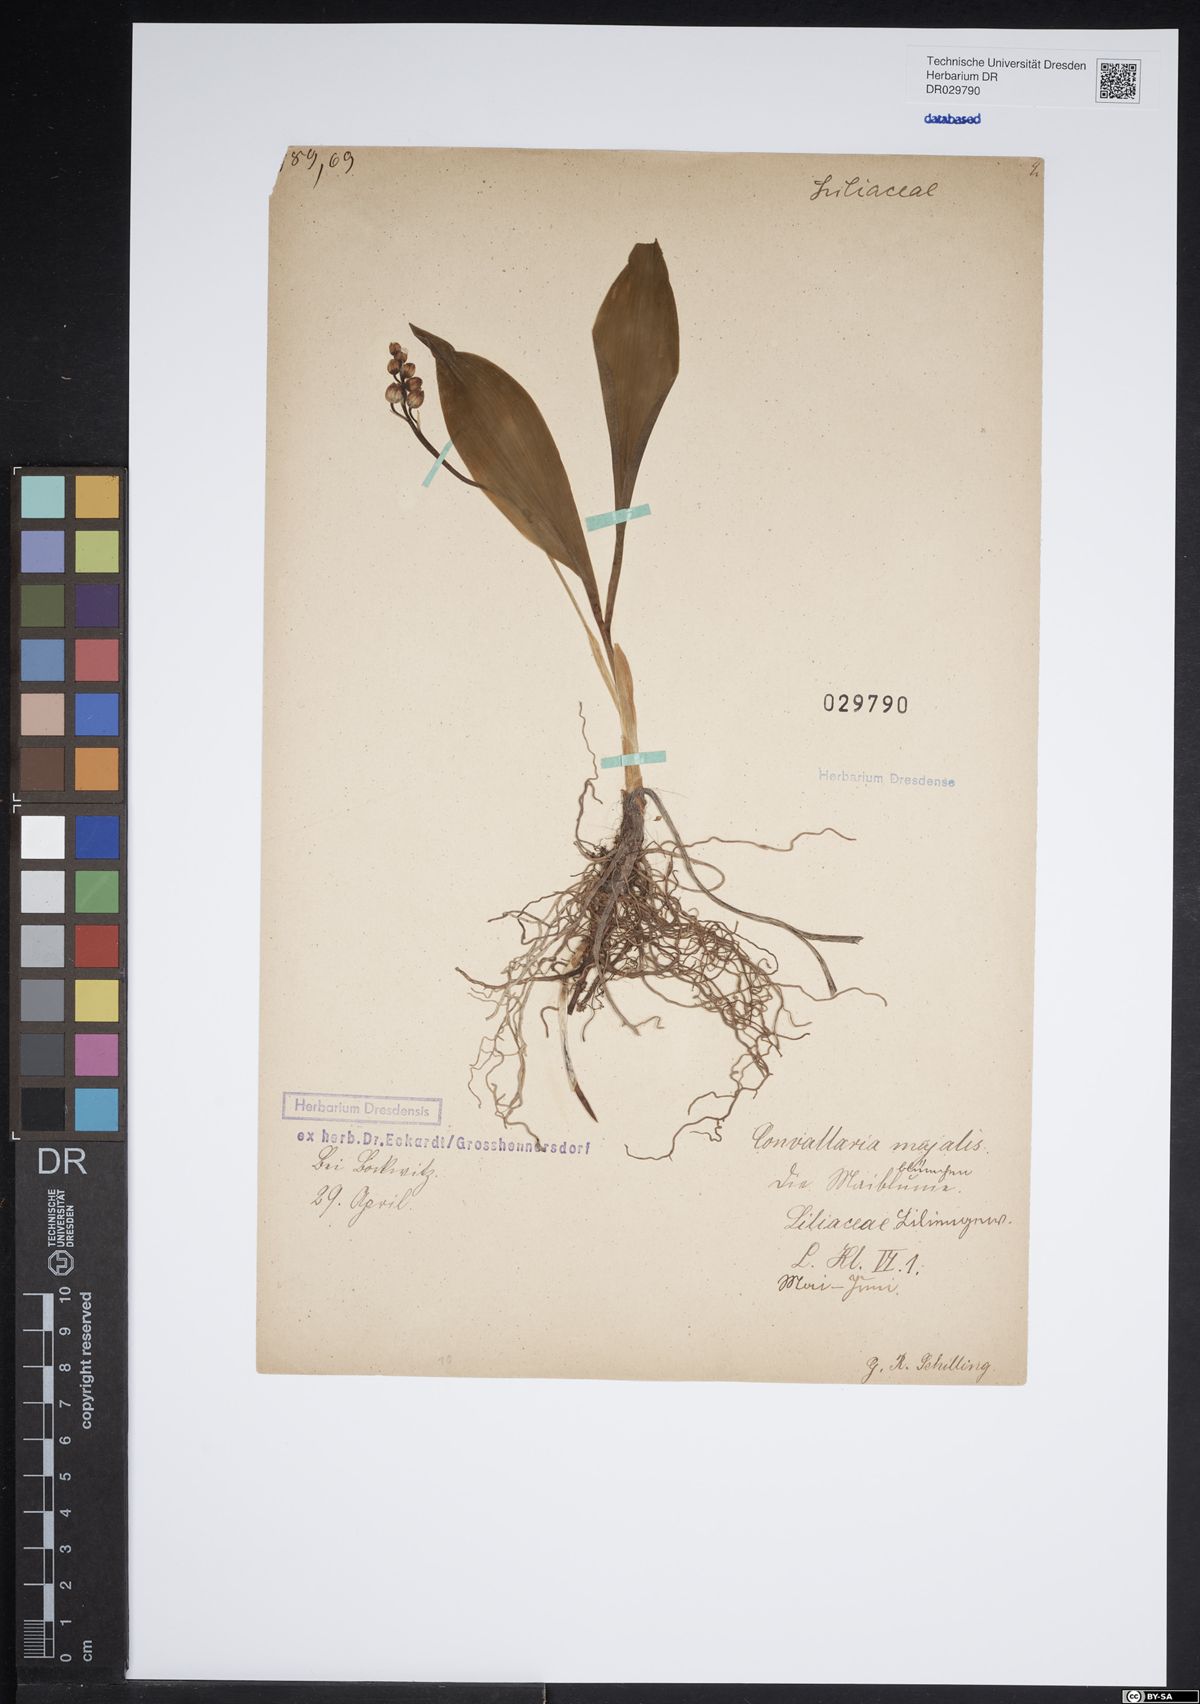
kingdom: Plantae
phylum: Tracheophyta
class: Liliopsida
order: Asparagales
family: Asparagaceae
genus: Convallaria
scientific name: Convallaria majalis
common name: Lily-of-the-valley
